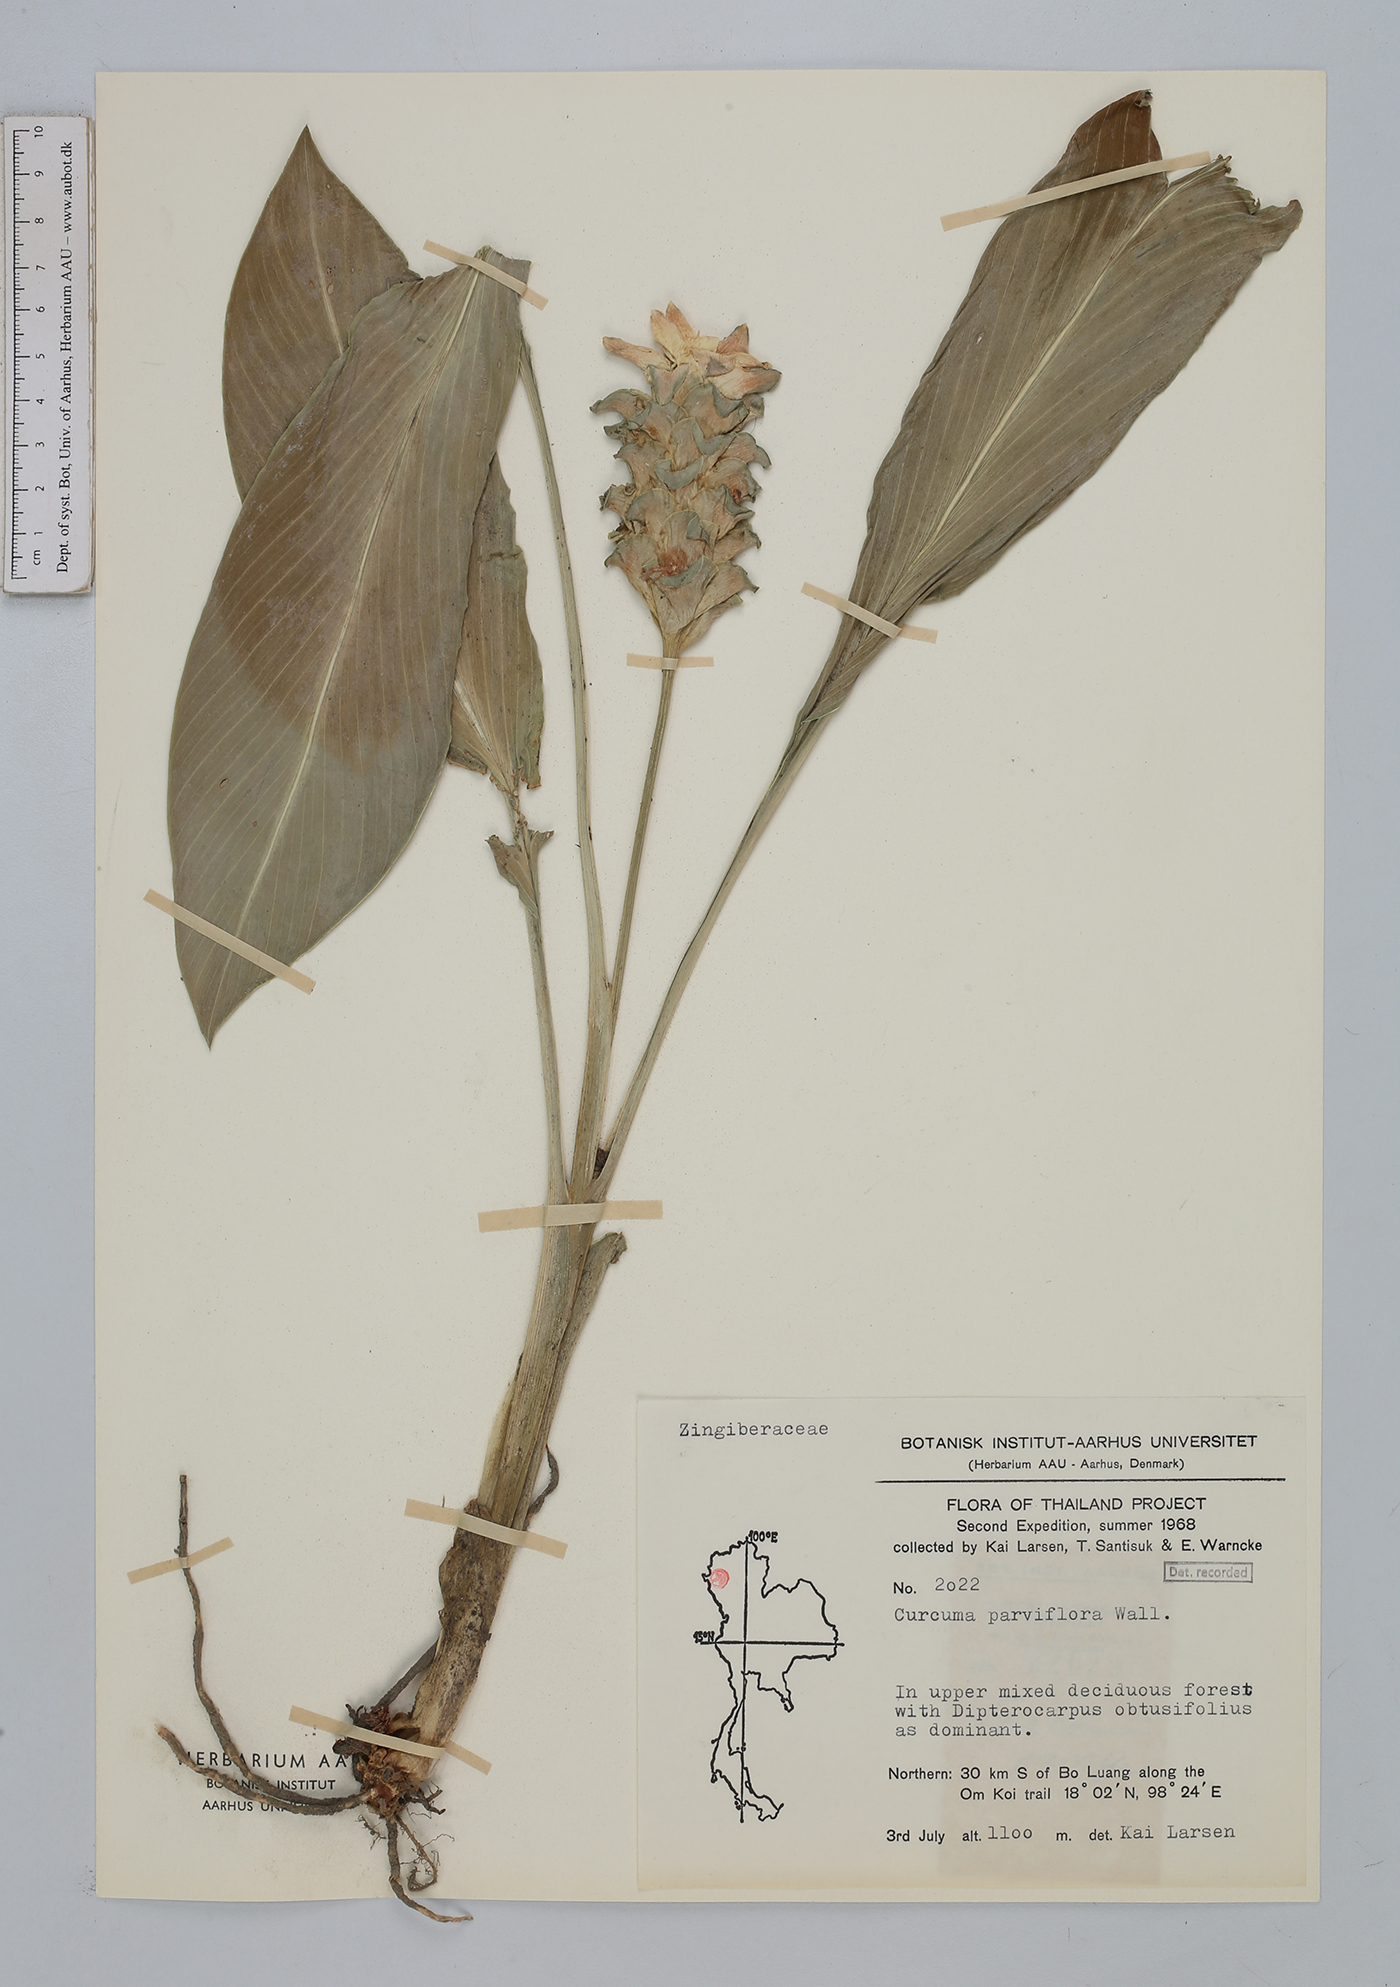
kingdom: Plantae
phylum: Tracheophyta
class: Liliopsida
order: Zingiberales
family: Zingiberaceae
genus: Curcuma
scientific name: Curcuma parviflora
